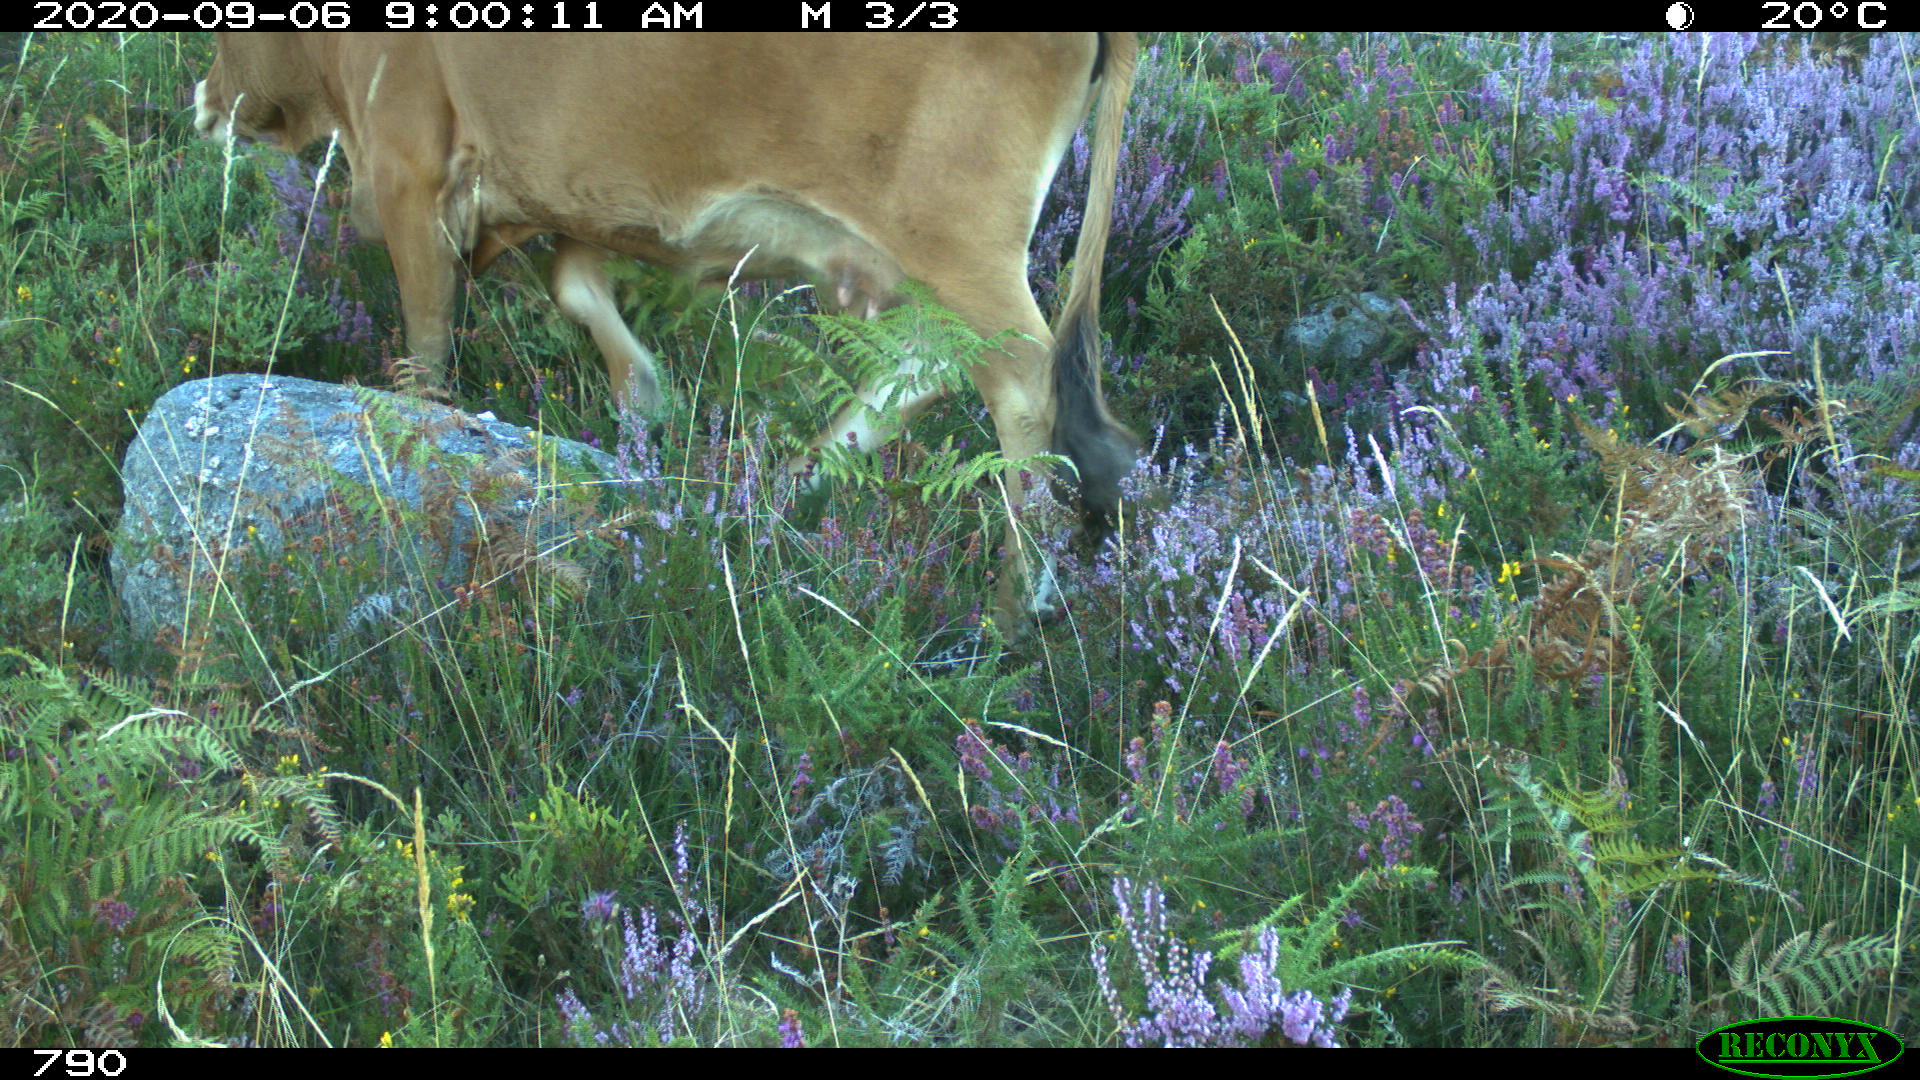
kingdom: Animalia
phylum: Chordata
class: Mammalia
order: Artiodactyla
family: Bovidae
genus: Bos
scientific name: Bos taurus
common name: Domesticated cattle
